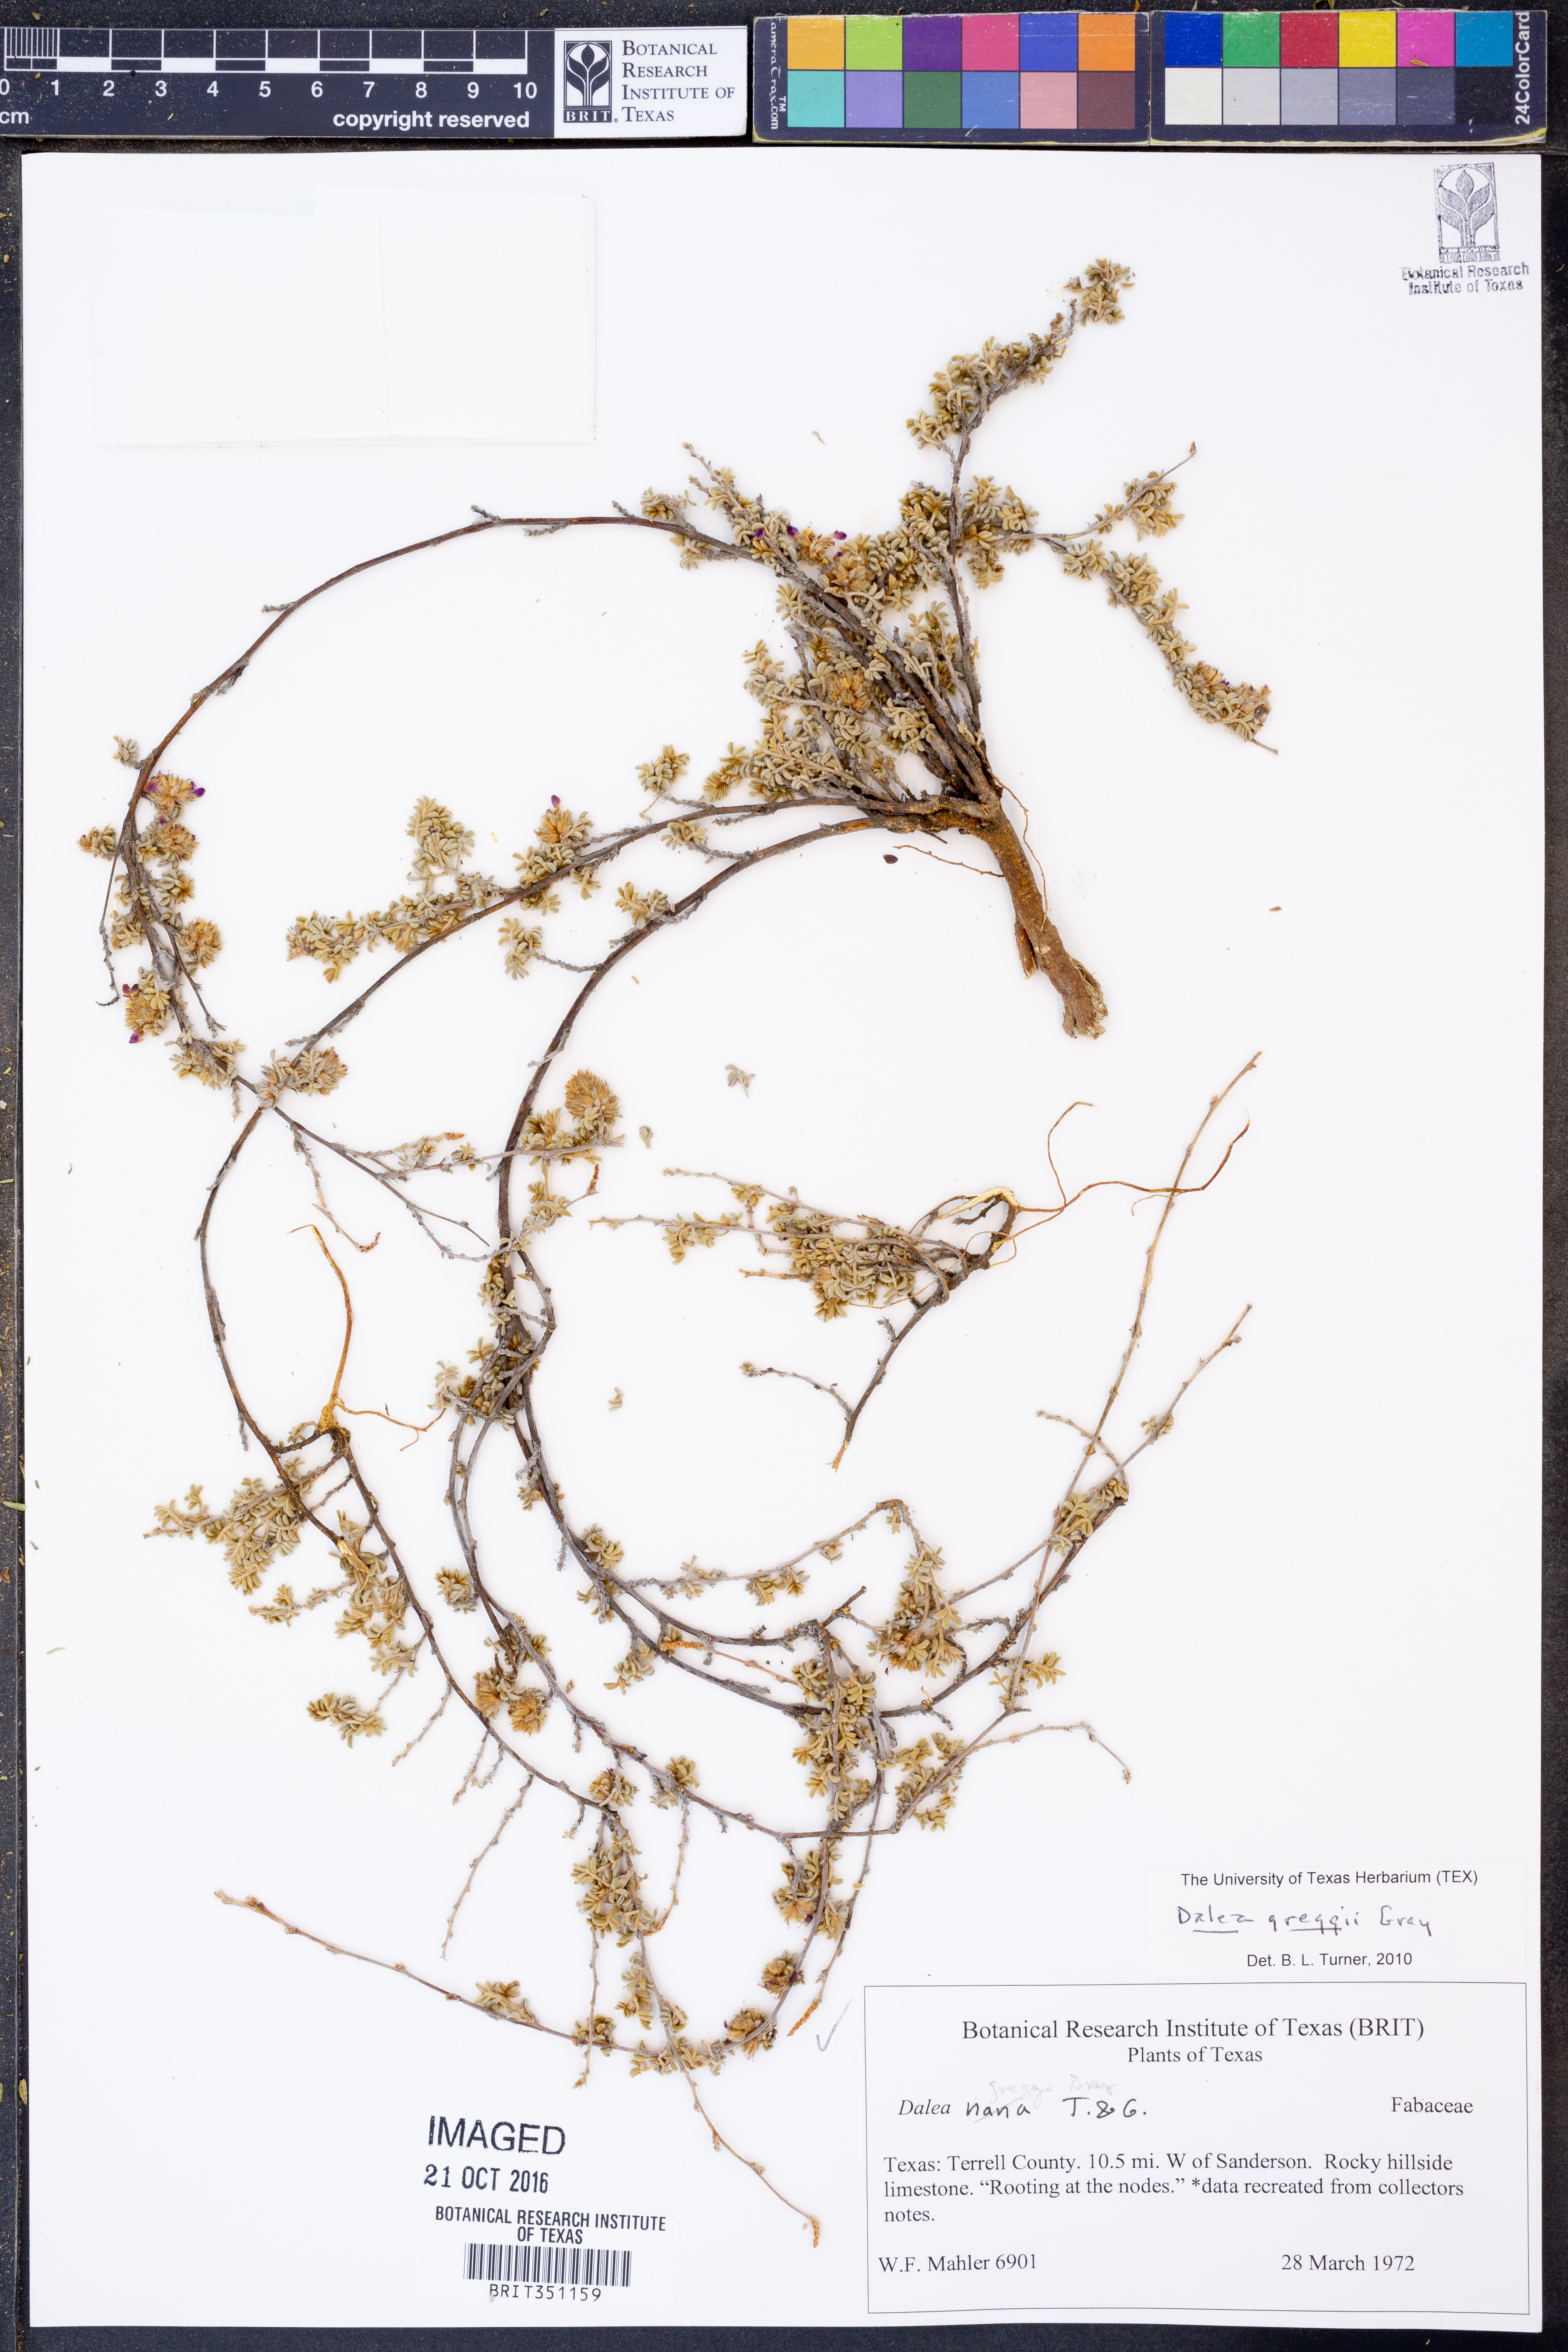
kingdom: Plantae
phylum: Tracheophyta
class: Magnoliopsida
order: Fabales
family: Fabaceae
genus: Dalea
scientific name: Dalea greggii
